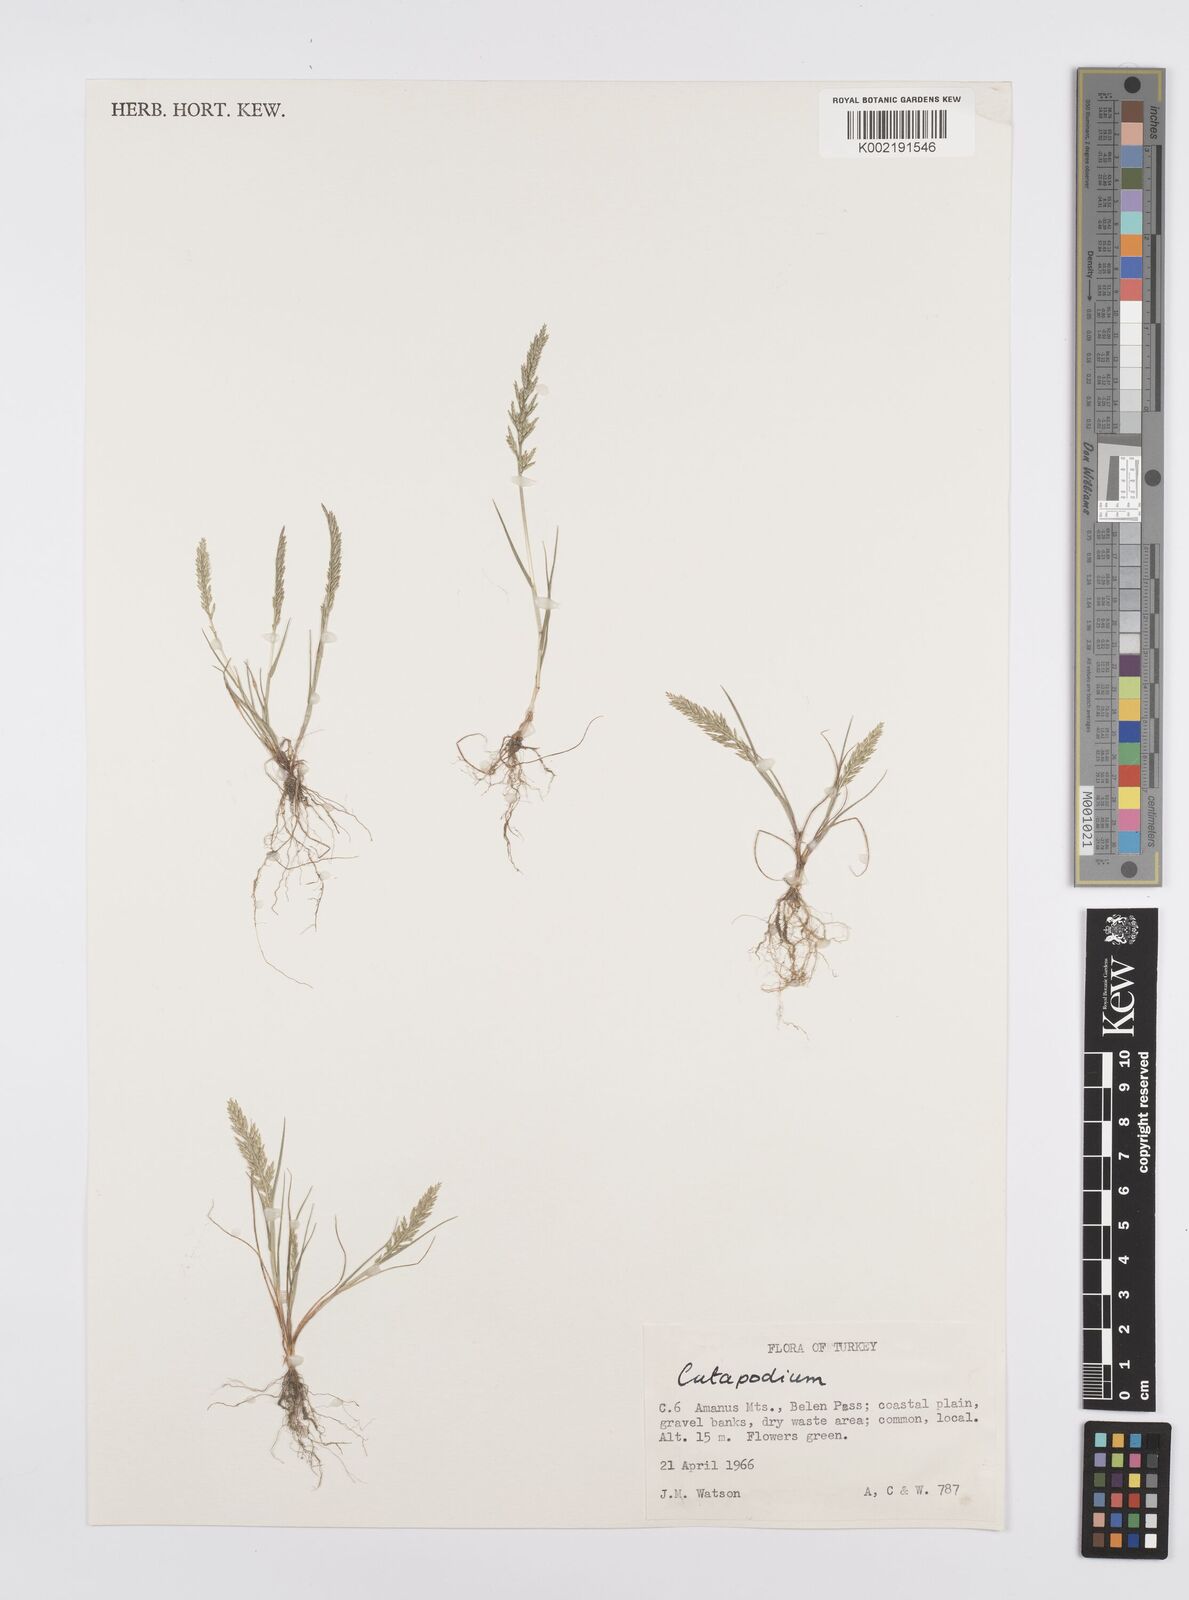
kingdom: Plantae
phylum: Tracheophyta
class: Liliopsida
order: Poales
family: Poaceae
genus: Catapodium
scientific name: Catapodium rigidum
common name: Fern-grass
